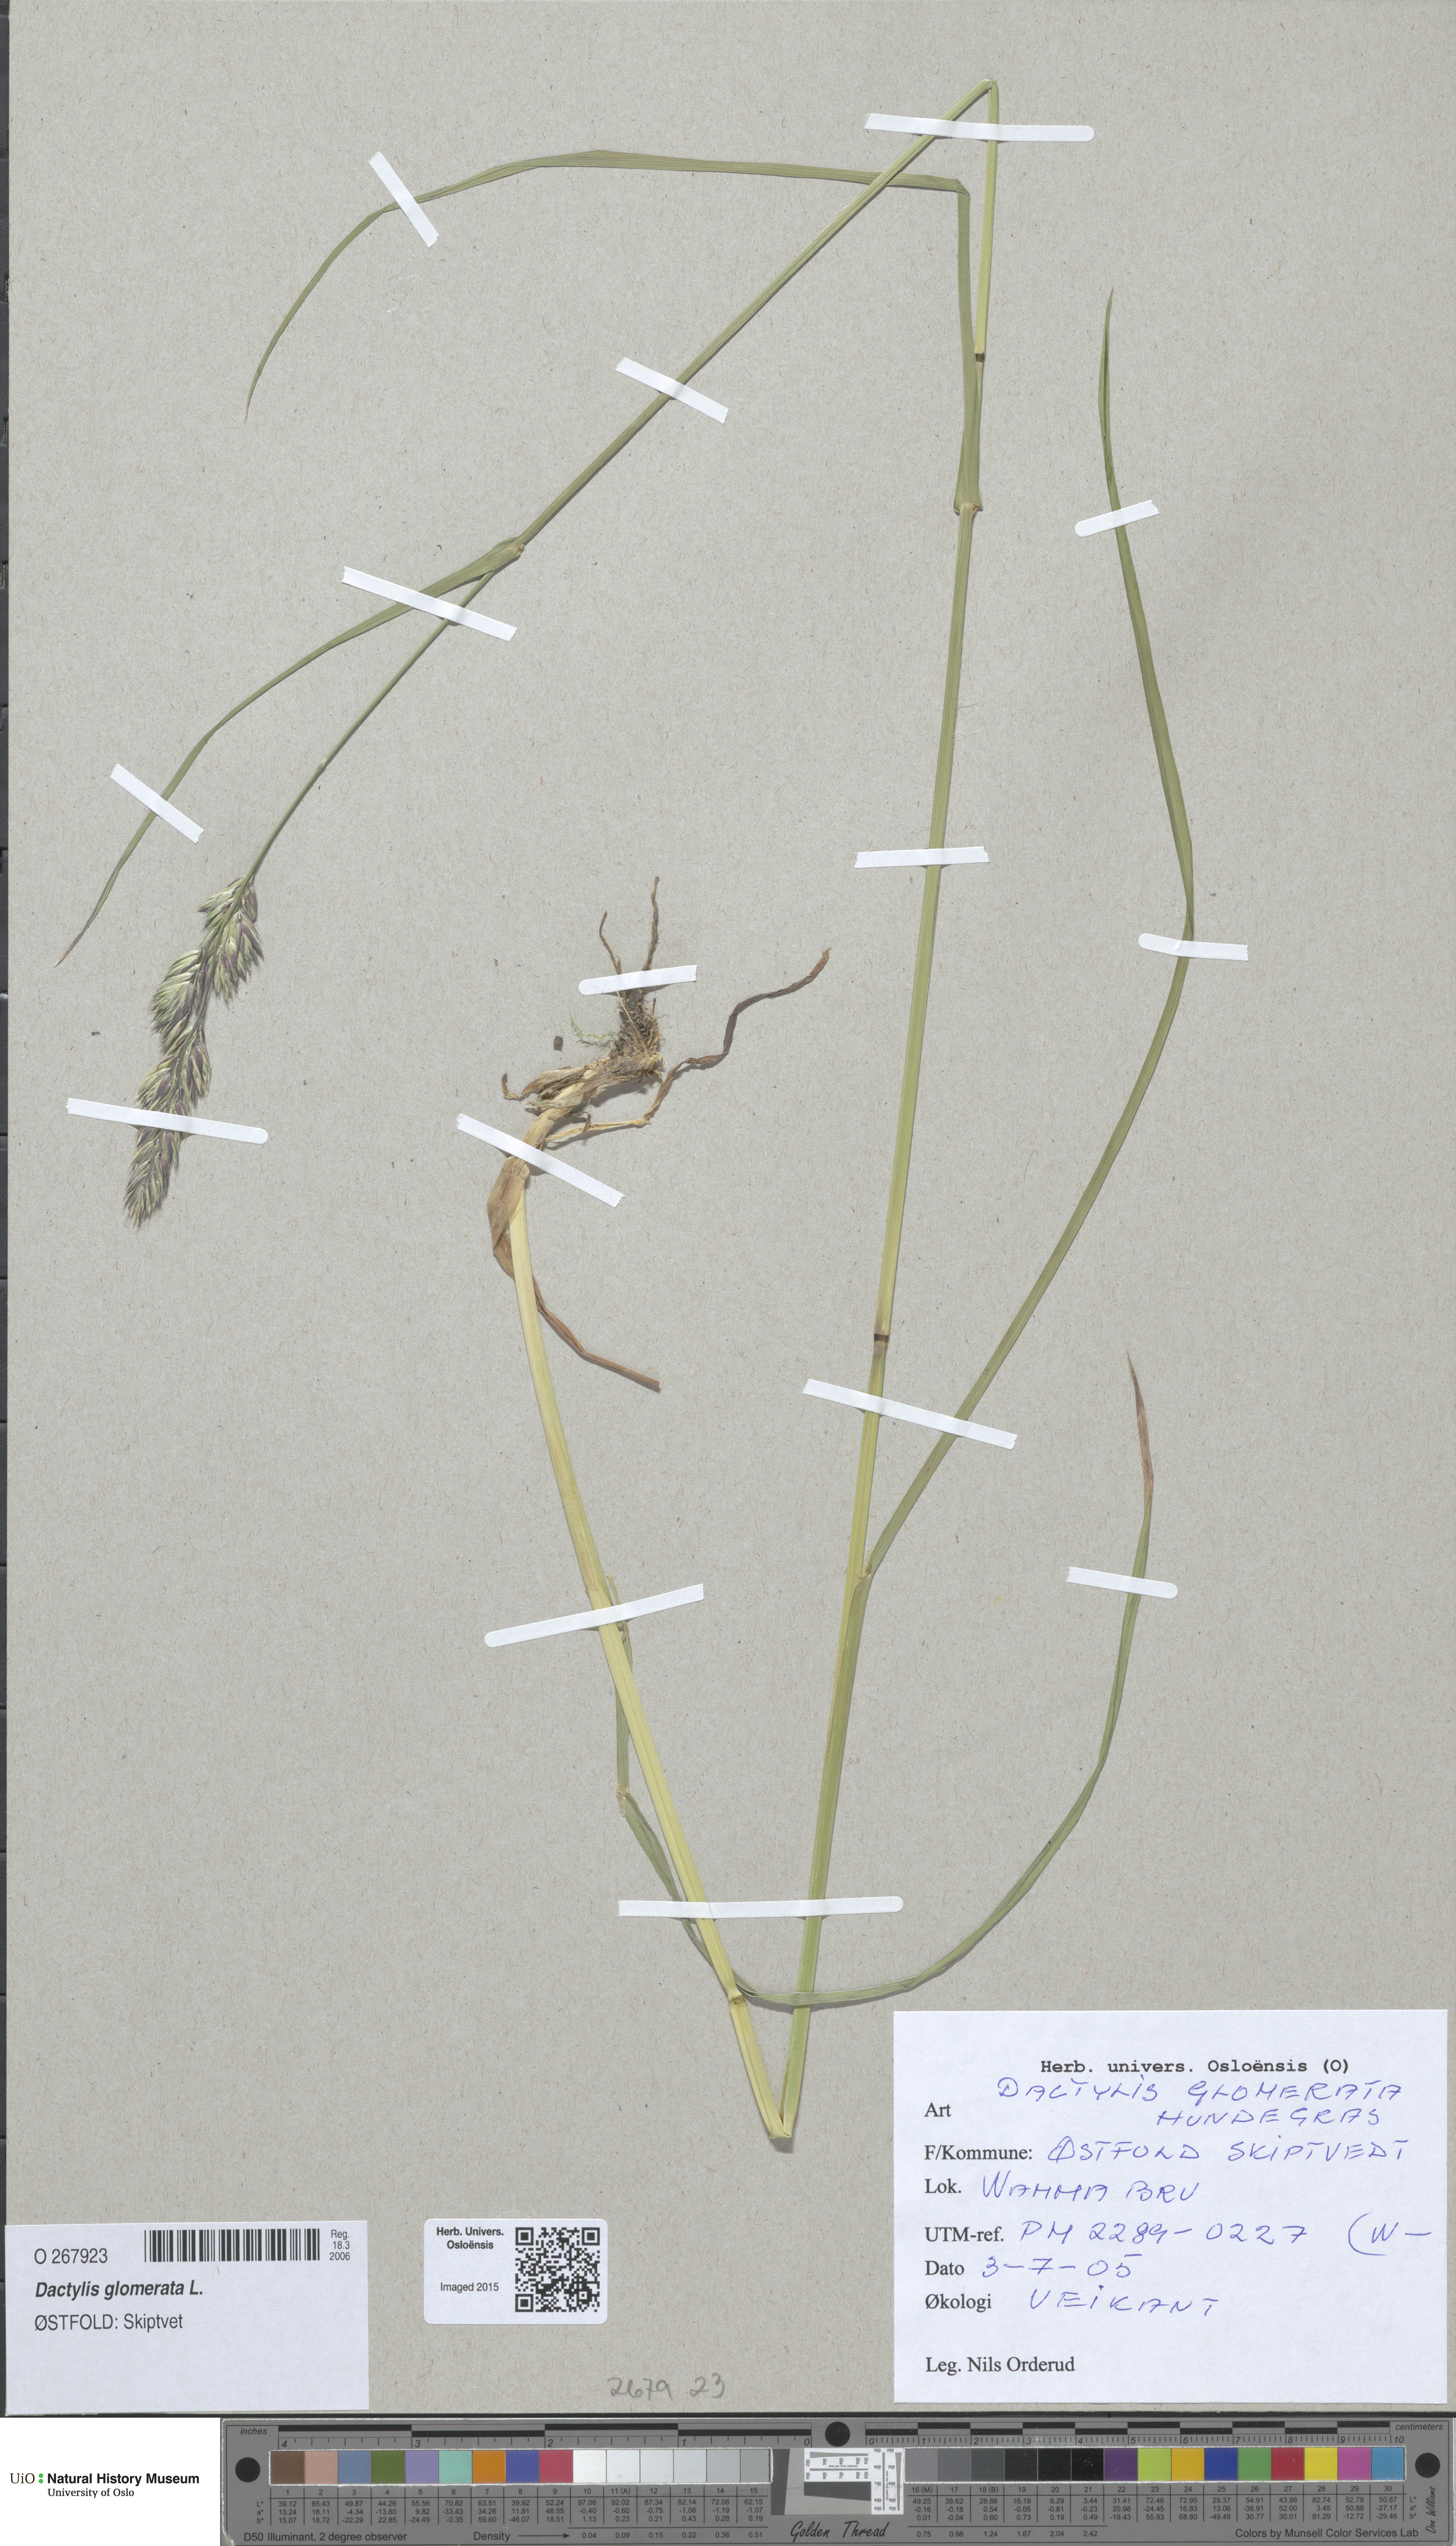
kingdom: Plantae
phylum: Tracheophyta
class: Liliopsida
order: Poales
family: Poaceae
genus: Dactylis
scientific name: Dactylis glomerata
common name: Orchardgrass
